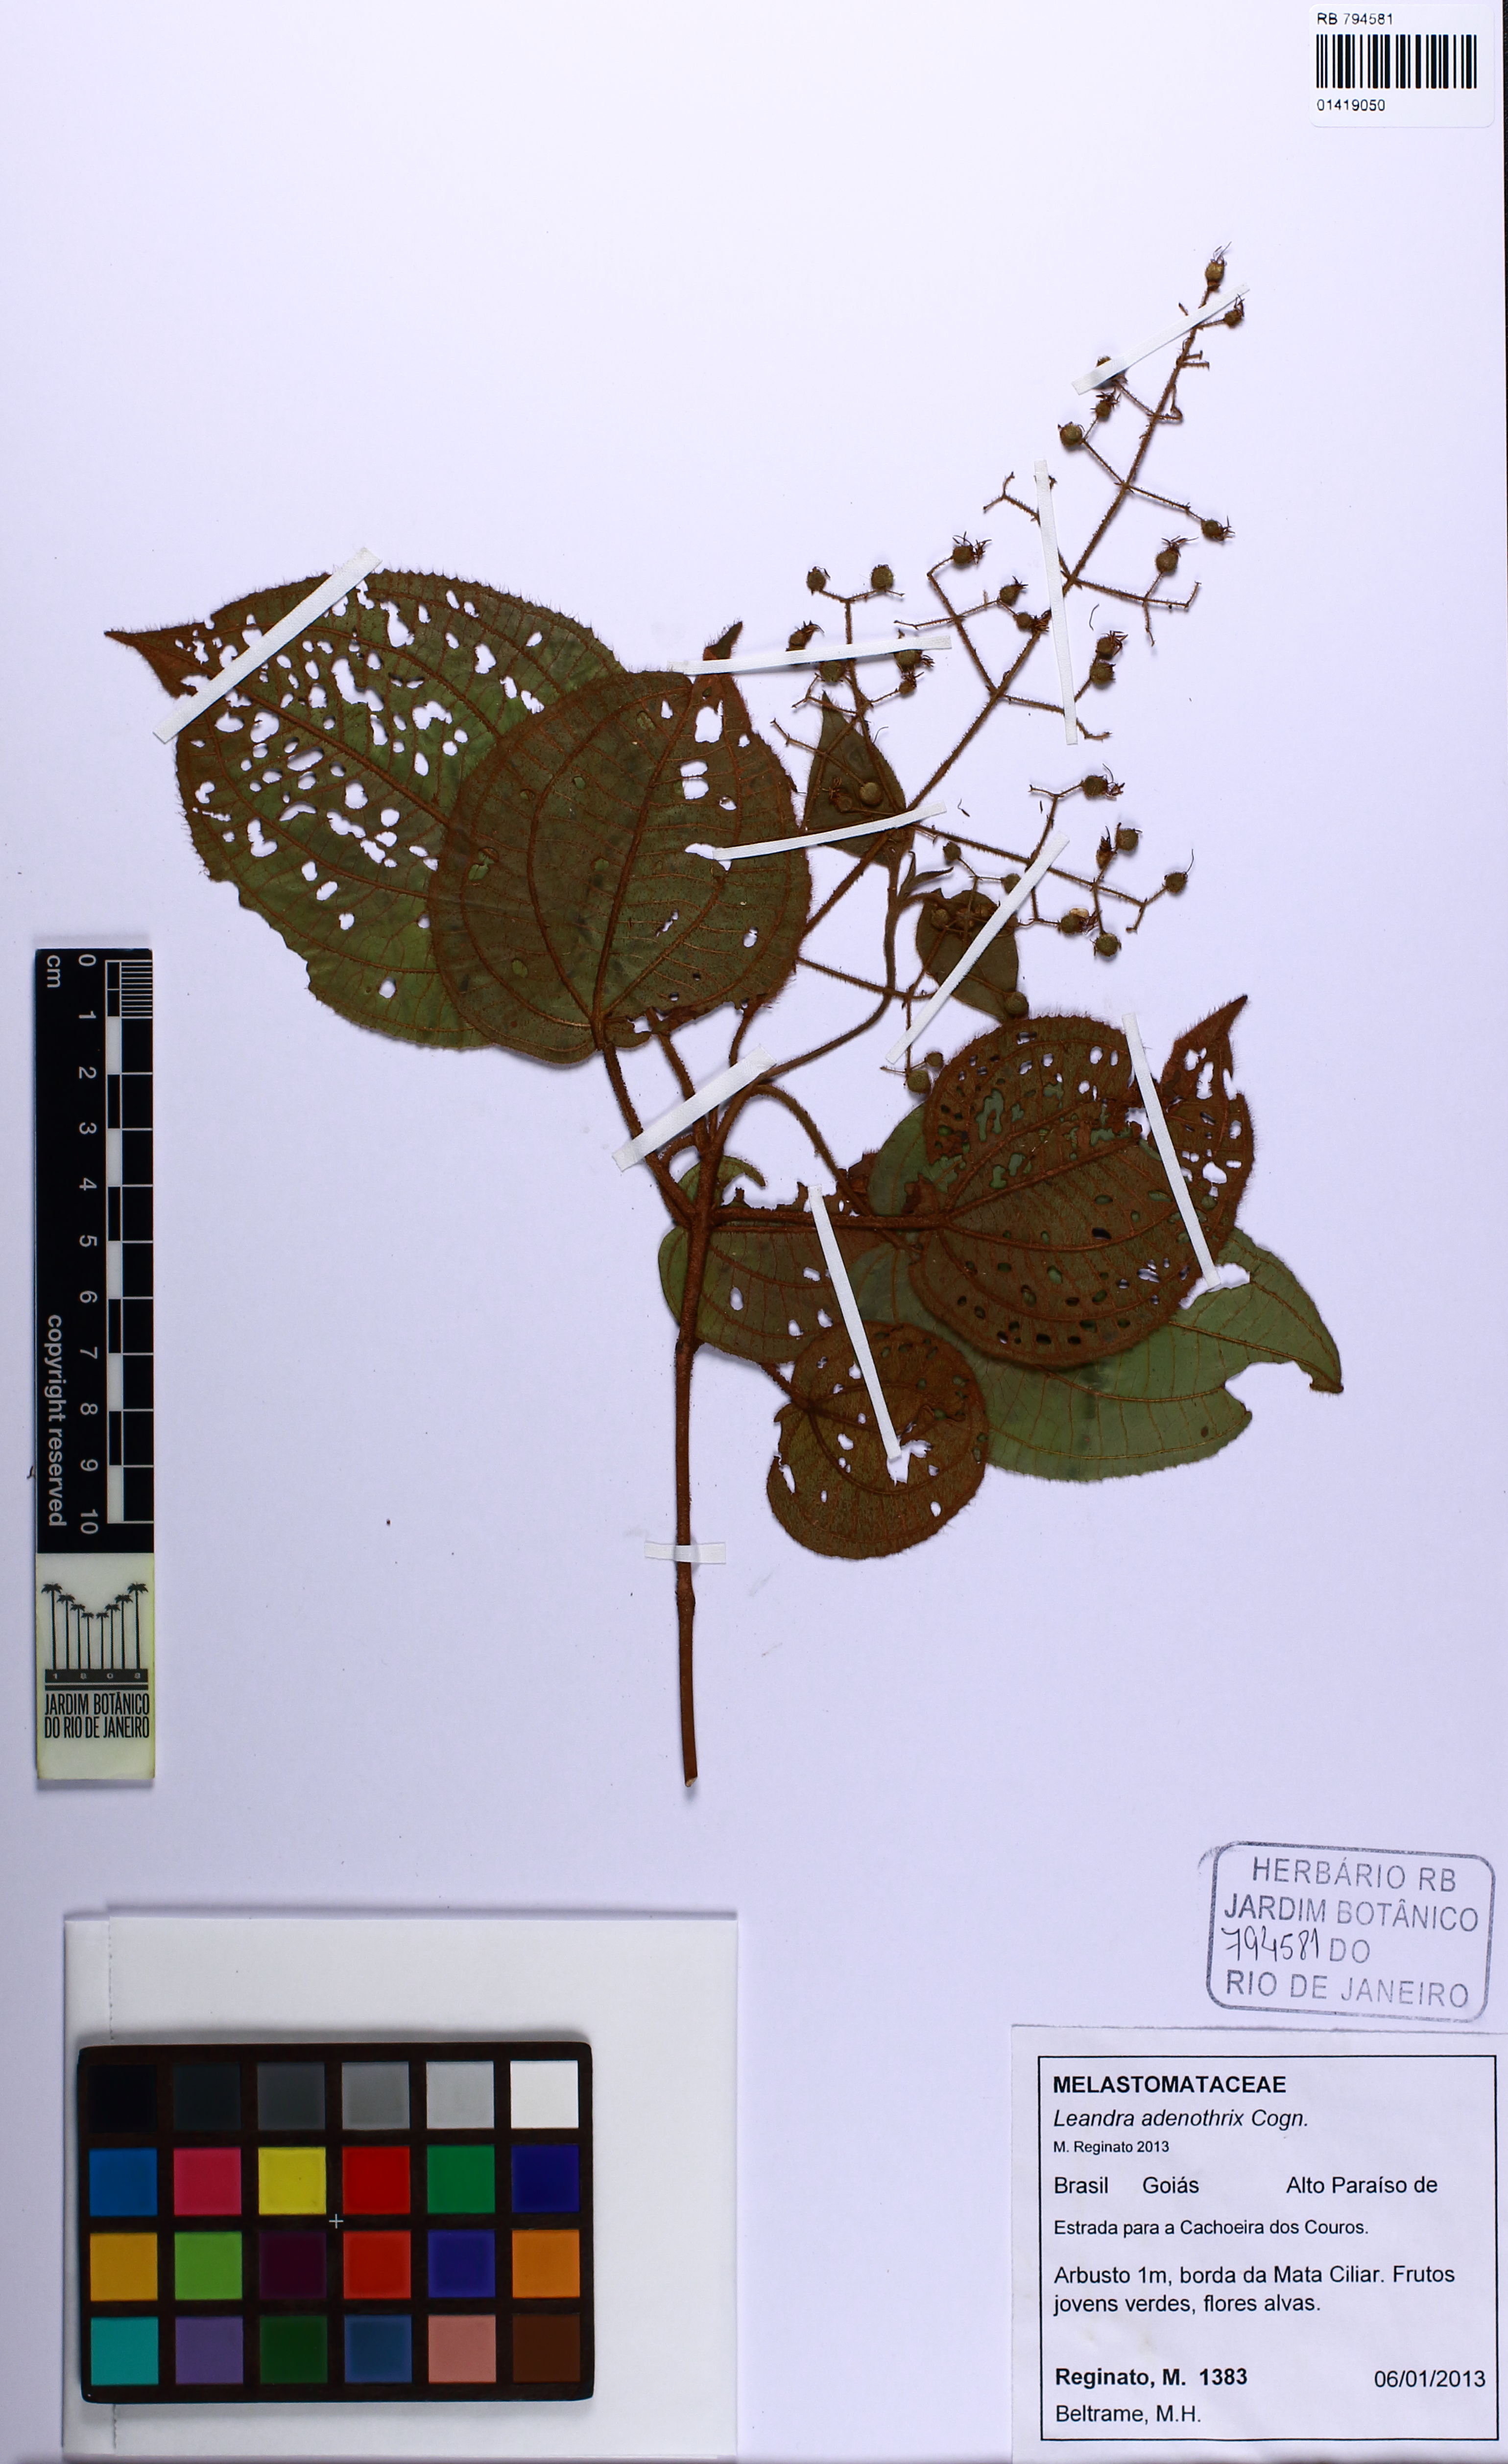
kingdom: Plantae
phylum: Tracheophyta
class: Magnoliopsida
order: Myrtales
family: Melastomataceae
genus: Miconia
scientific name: Miconia adenothrix
